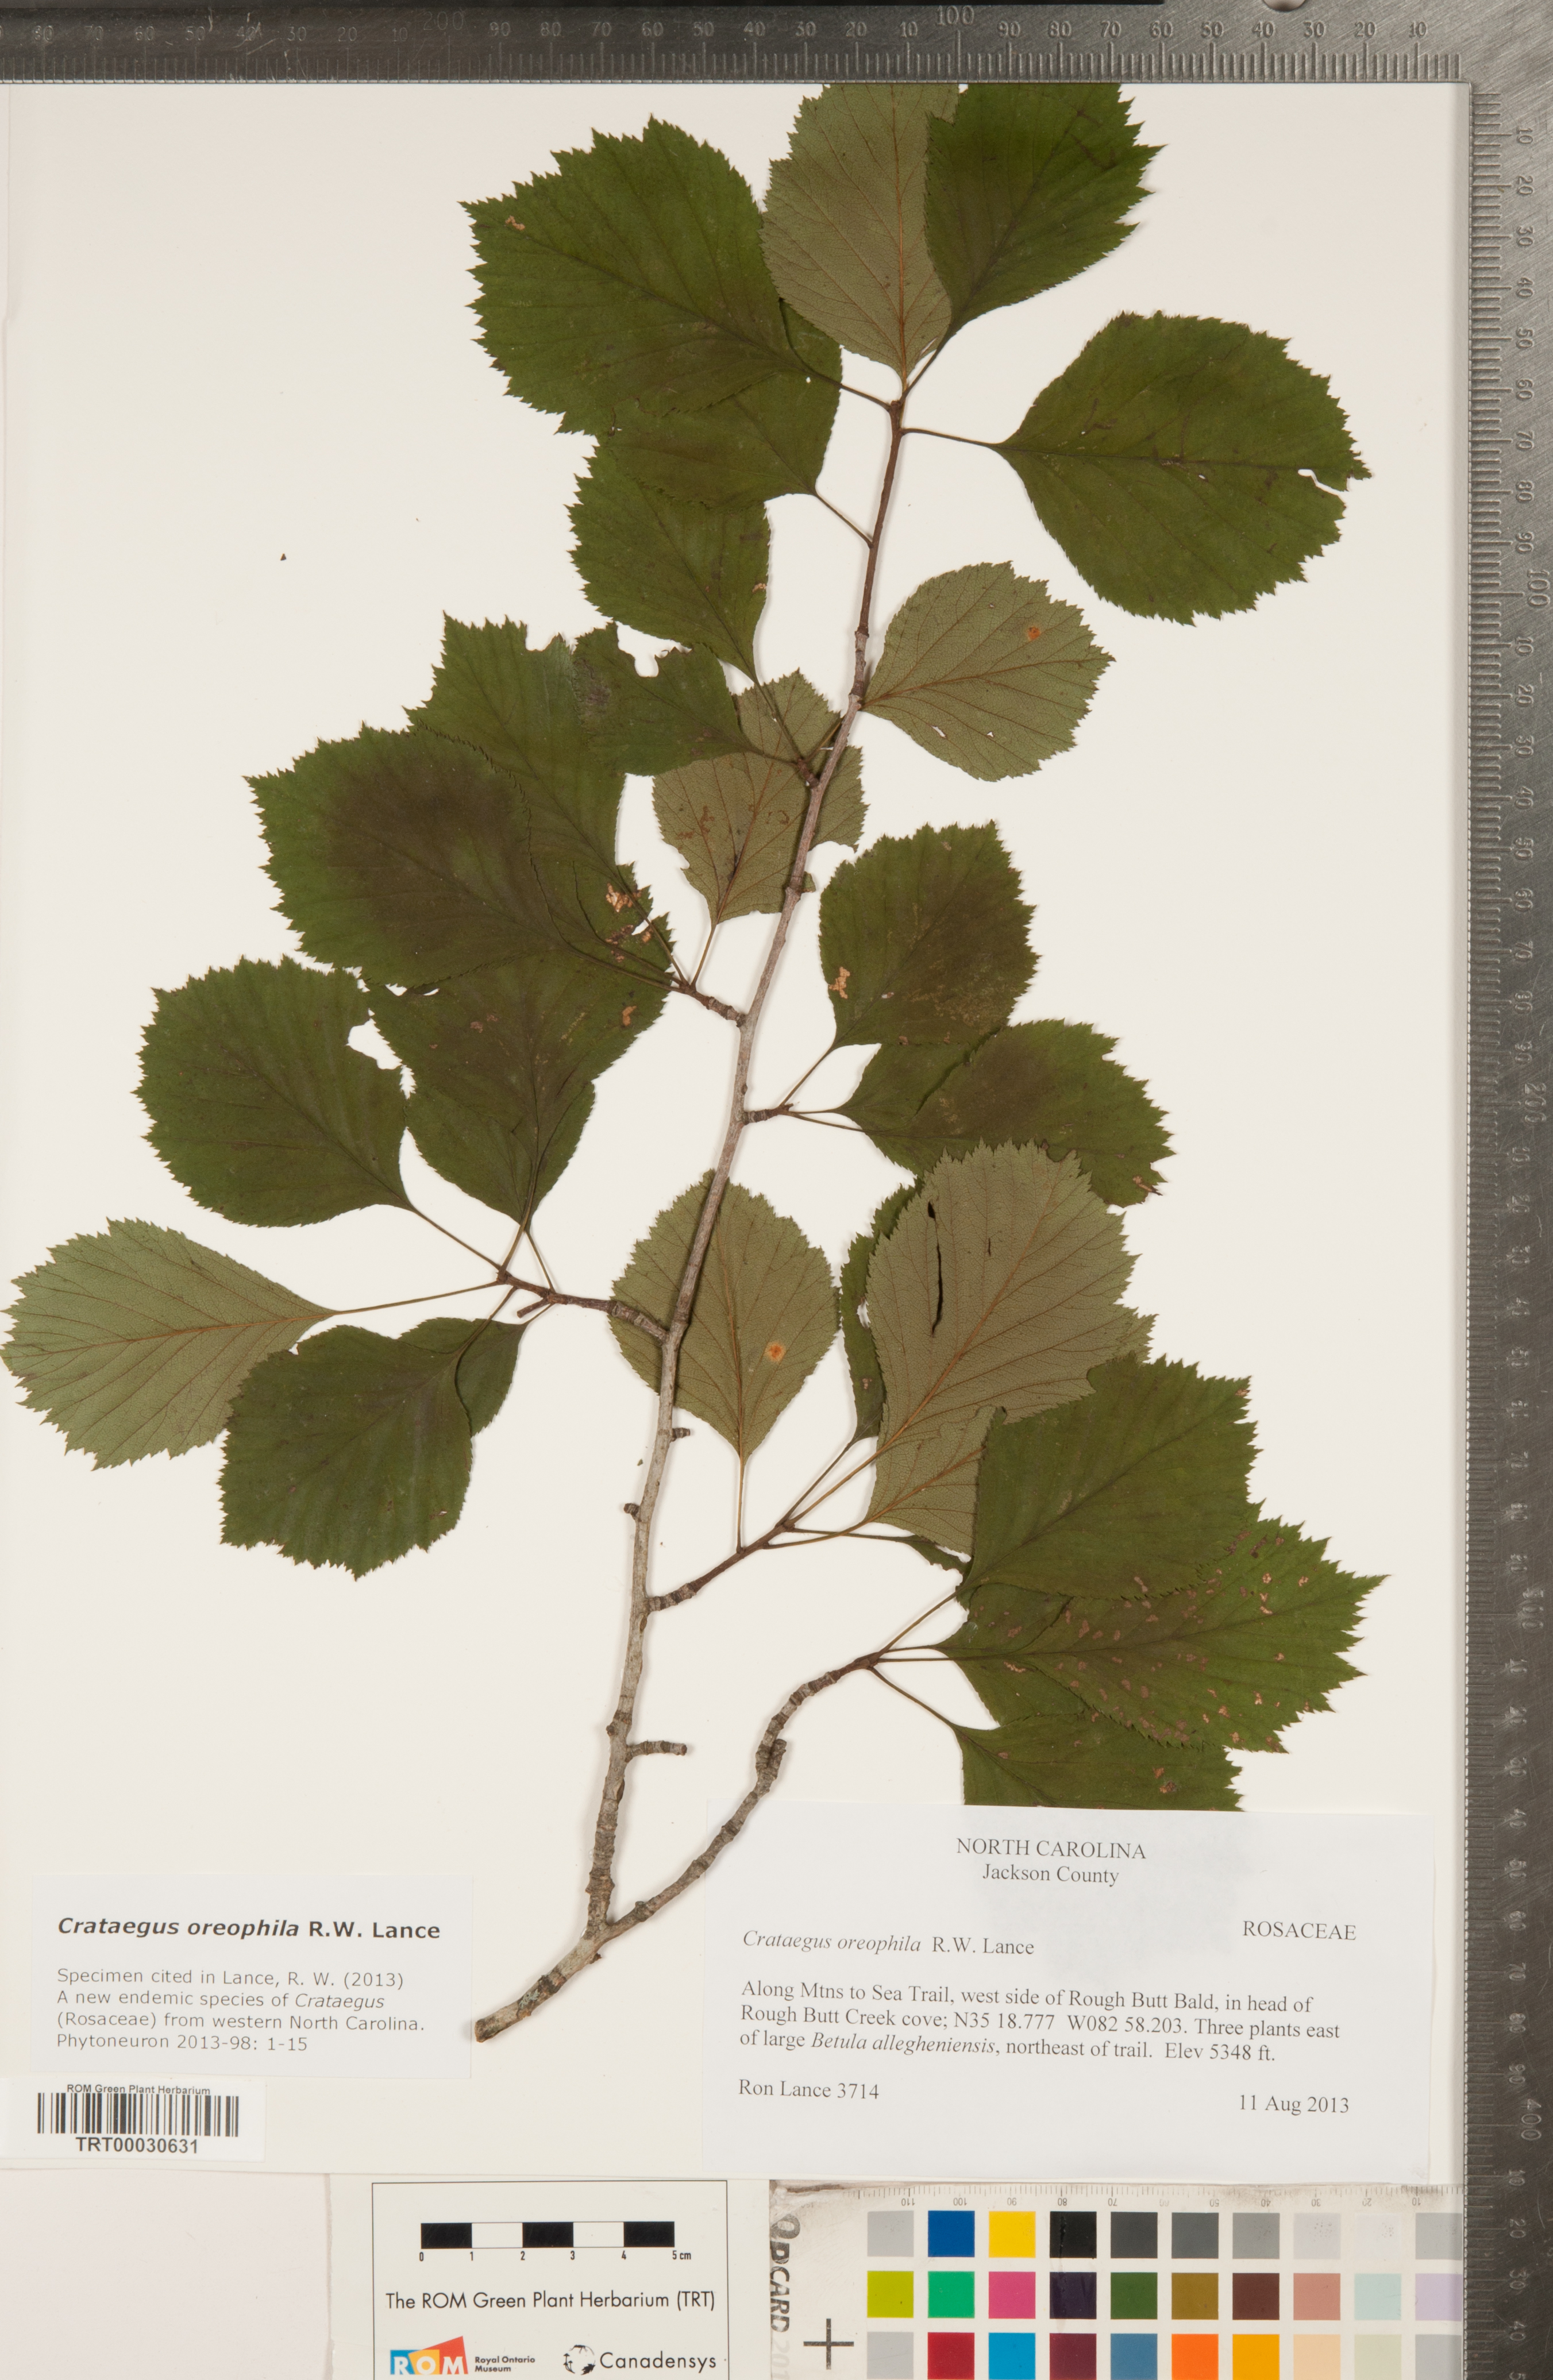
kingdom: Plantae
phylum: Tracheophyta
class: Magnoliopsida
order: Rosales
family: Rosaceae
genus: Crataegus
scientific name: Crataegus oreophila
